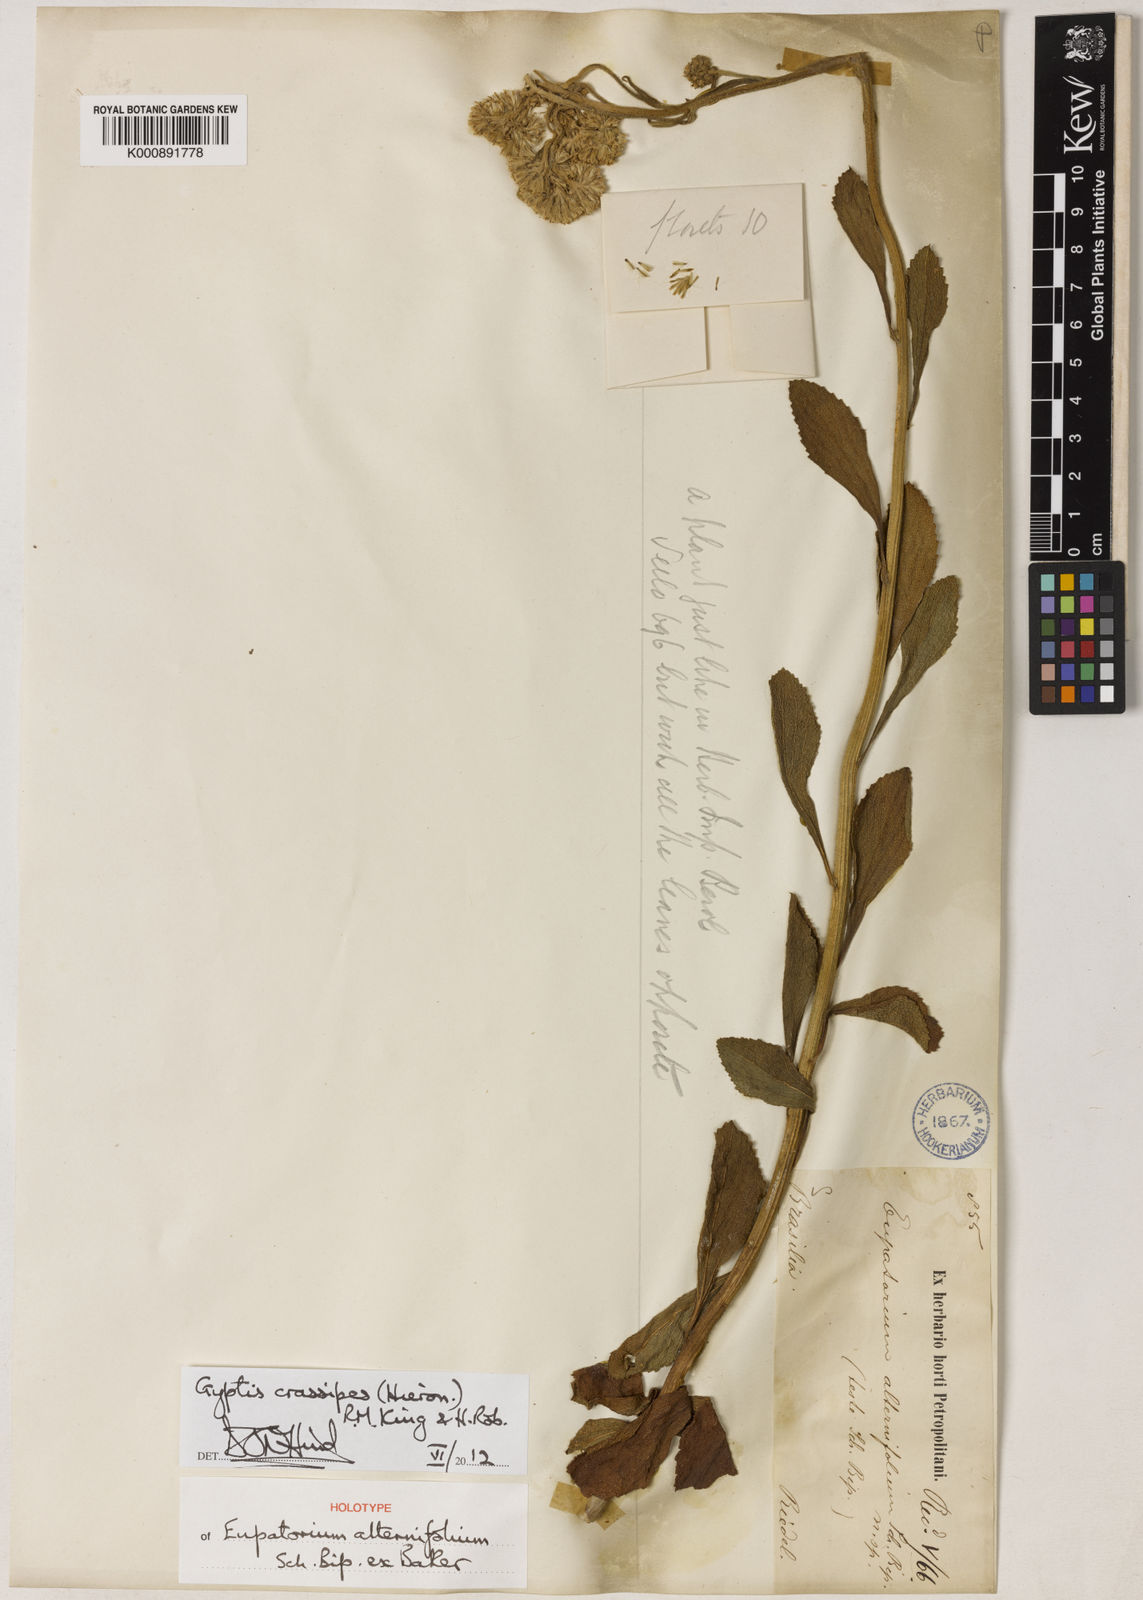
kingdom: Plantae
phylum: Tracheophyta
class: Magnoliopsida
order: Asterales
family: Asteraceae
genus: Gyptis
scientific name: Gyptis crassipes
